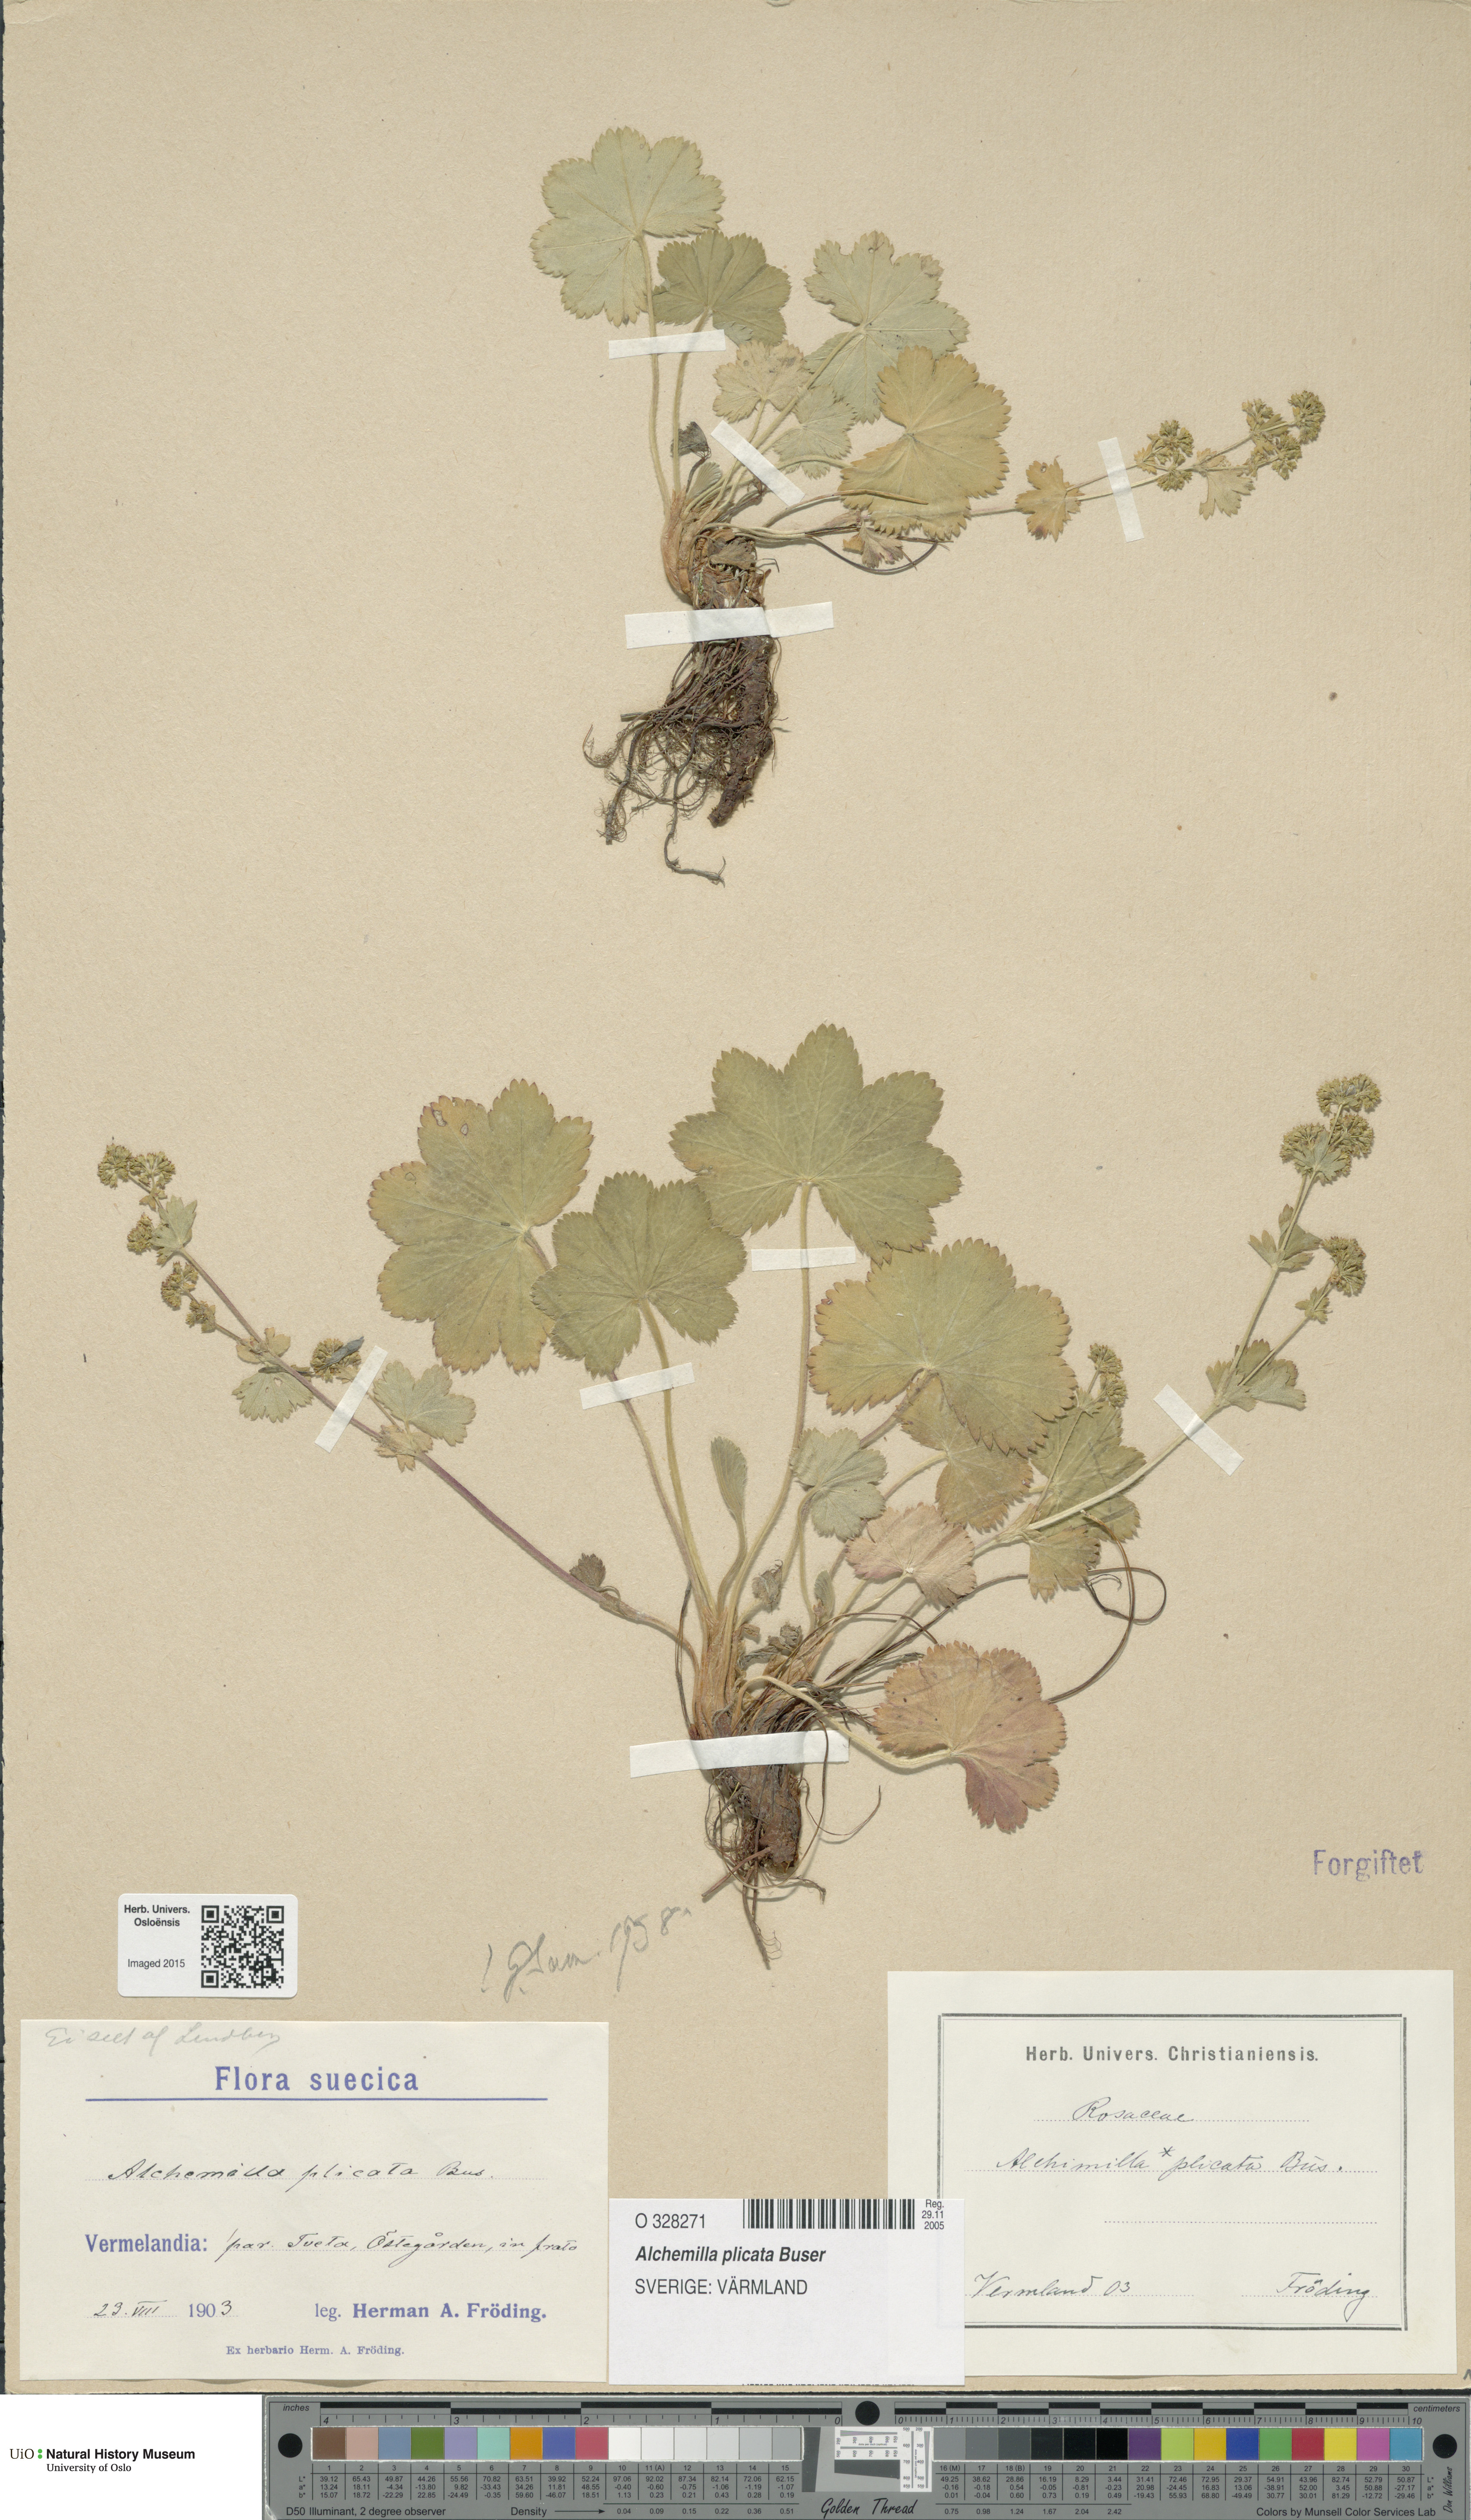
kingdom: Plantae
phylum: Tracheophyta
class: Magnoliopsida
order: Rosales
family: Rosaceae
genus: Alchemilla
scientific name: Alchemilla plicata
